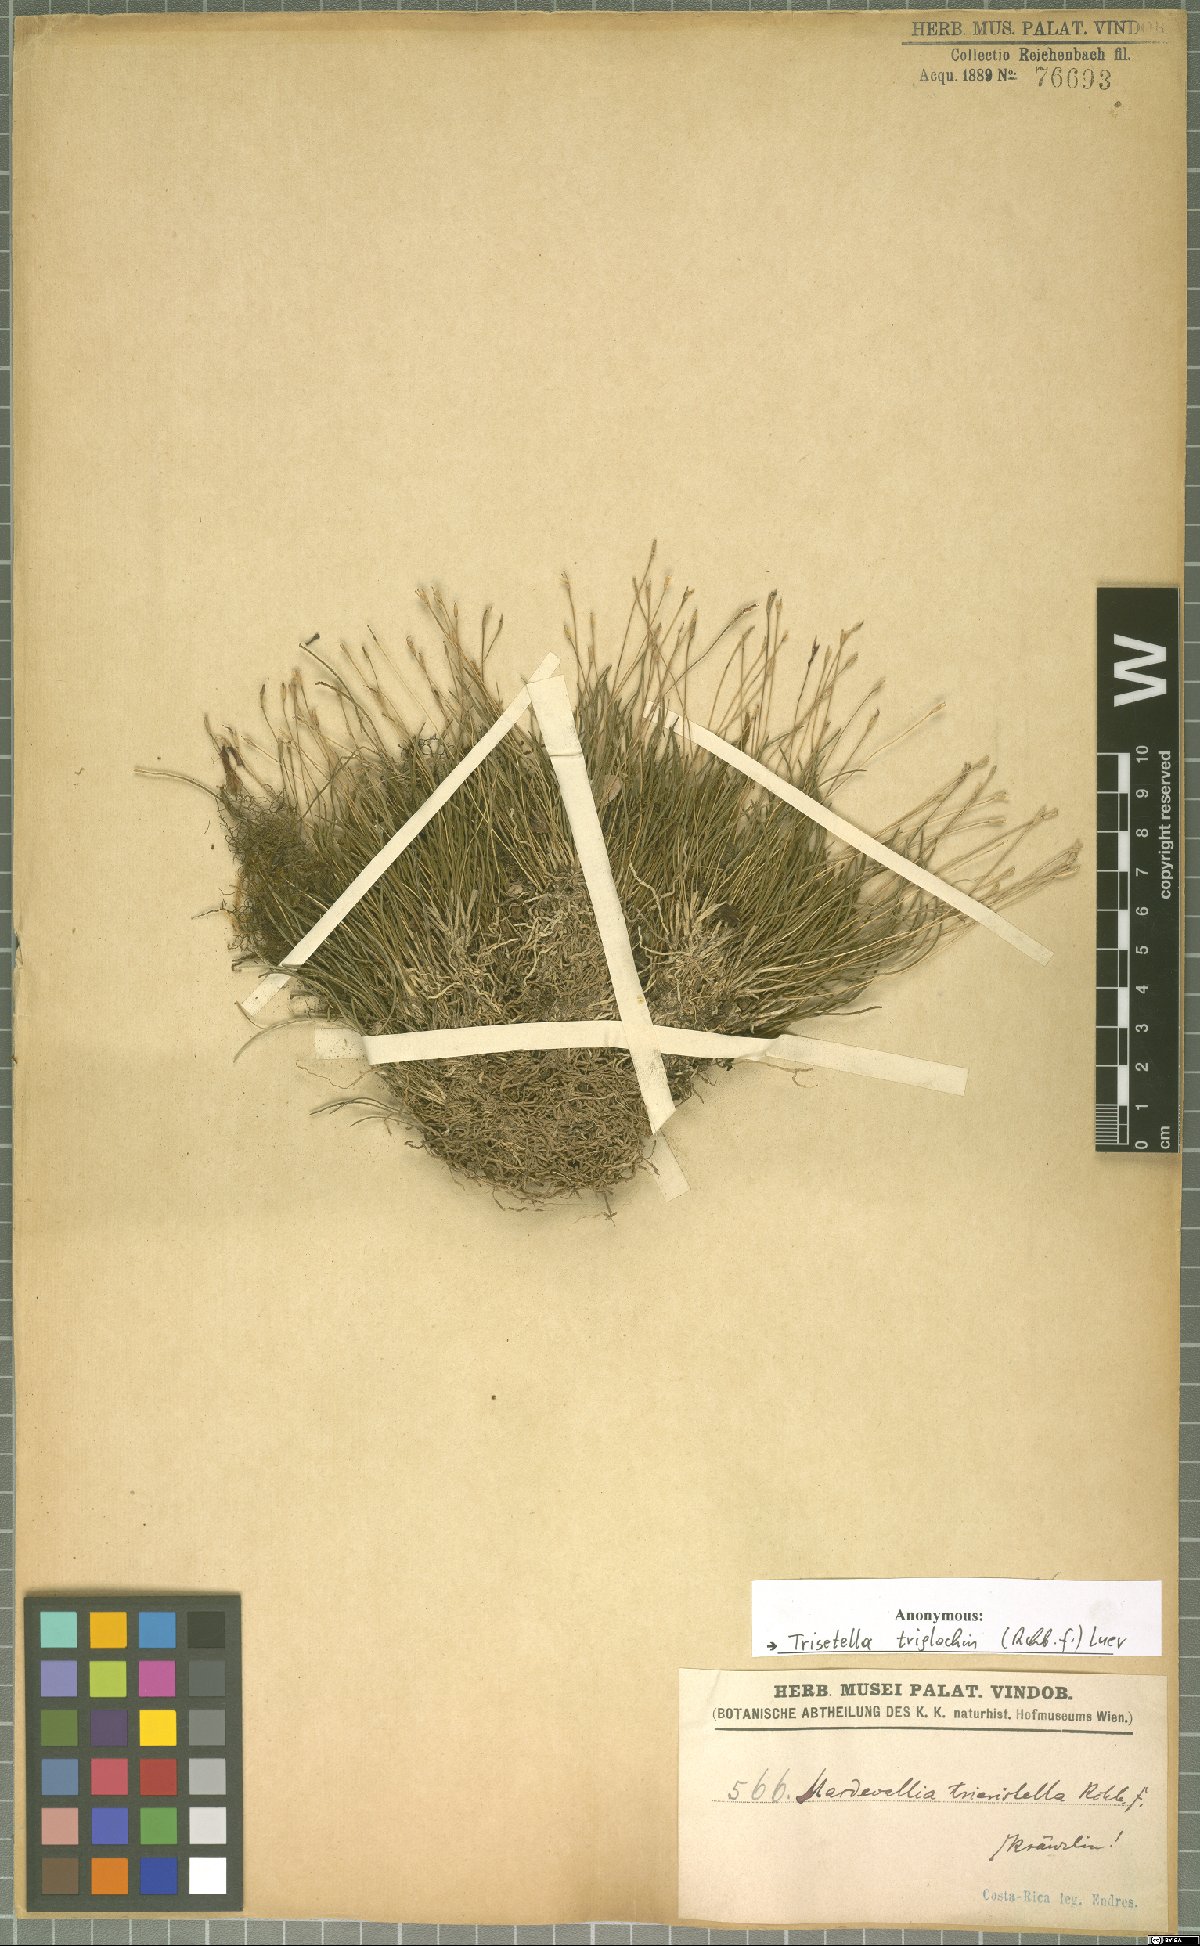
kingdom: Plantae
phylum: Tracheophyta
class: Liliopsida
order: Asparagales
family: Orchidaceae
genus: Trisetella
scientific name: Trisetella triglochin
